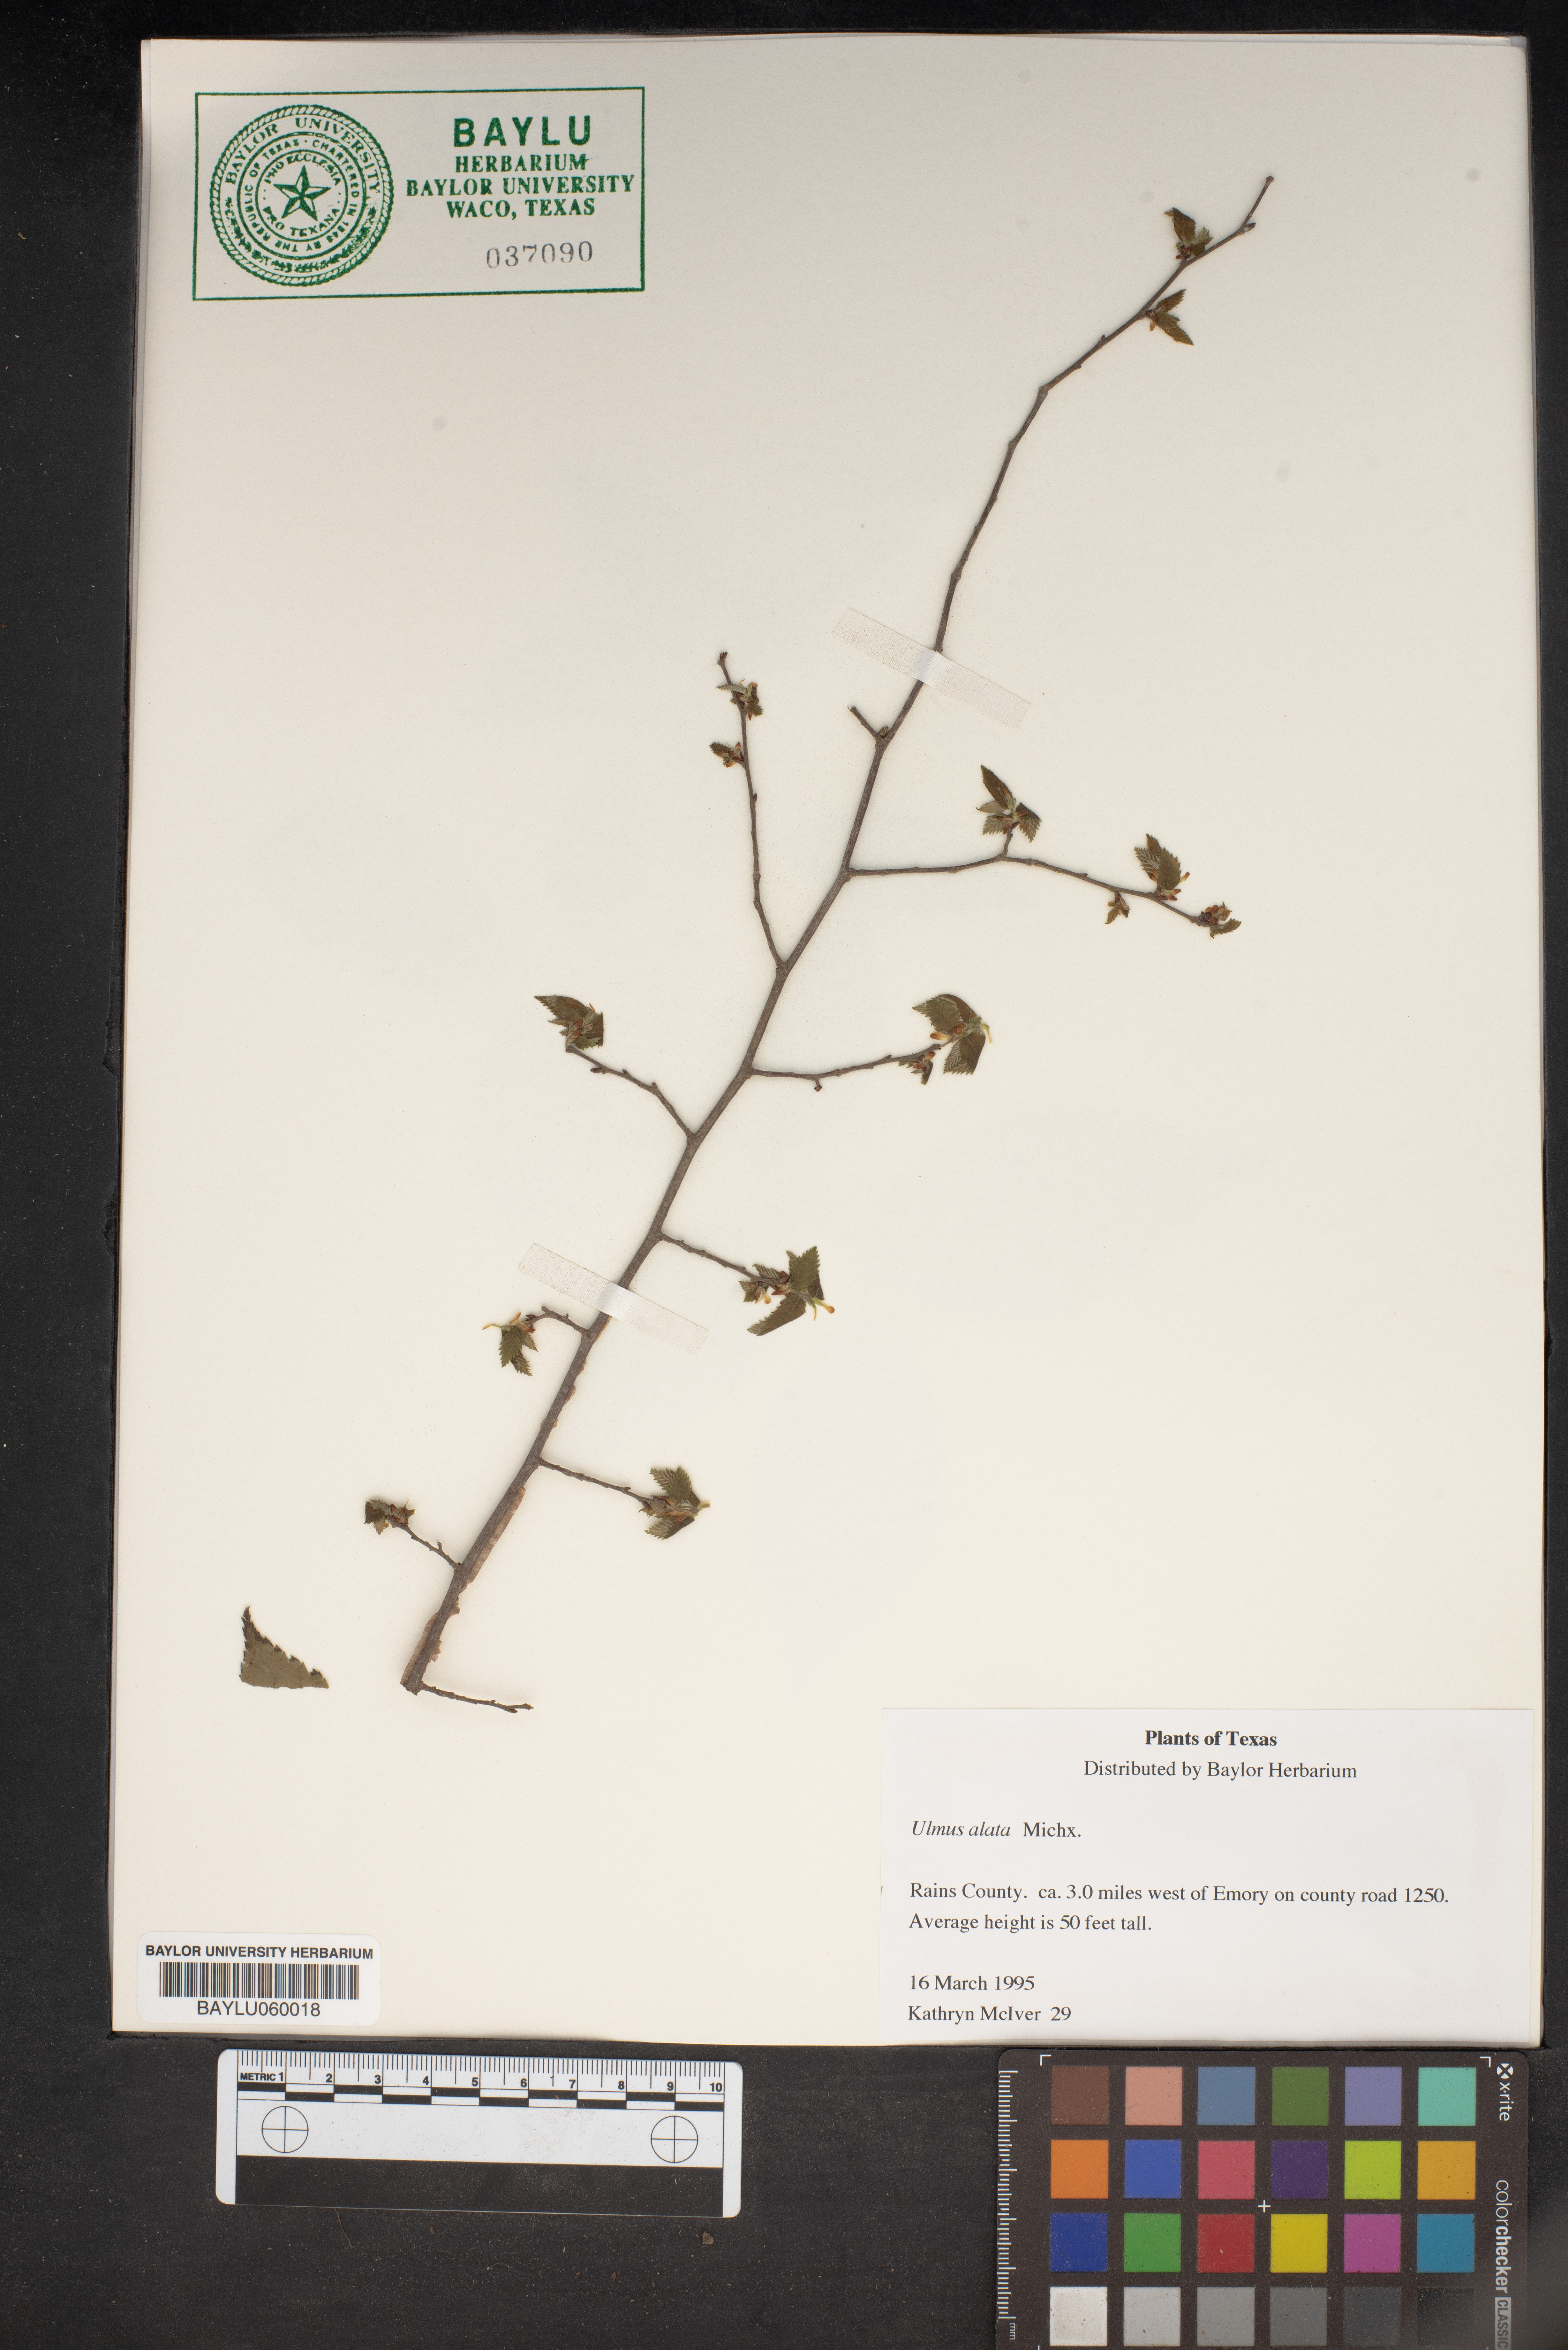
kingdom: Plantae
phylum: Tracheophyta
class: Magnoliopsida
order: Rosales
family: Ulmaceae
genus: Ulmus
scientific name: Ulmus alata
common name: Winged elm
